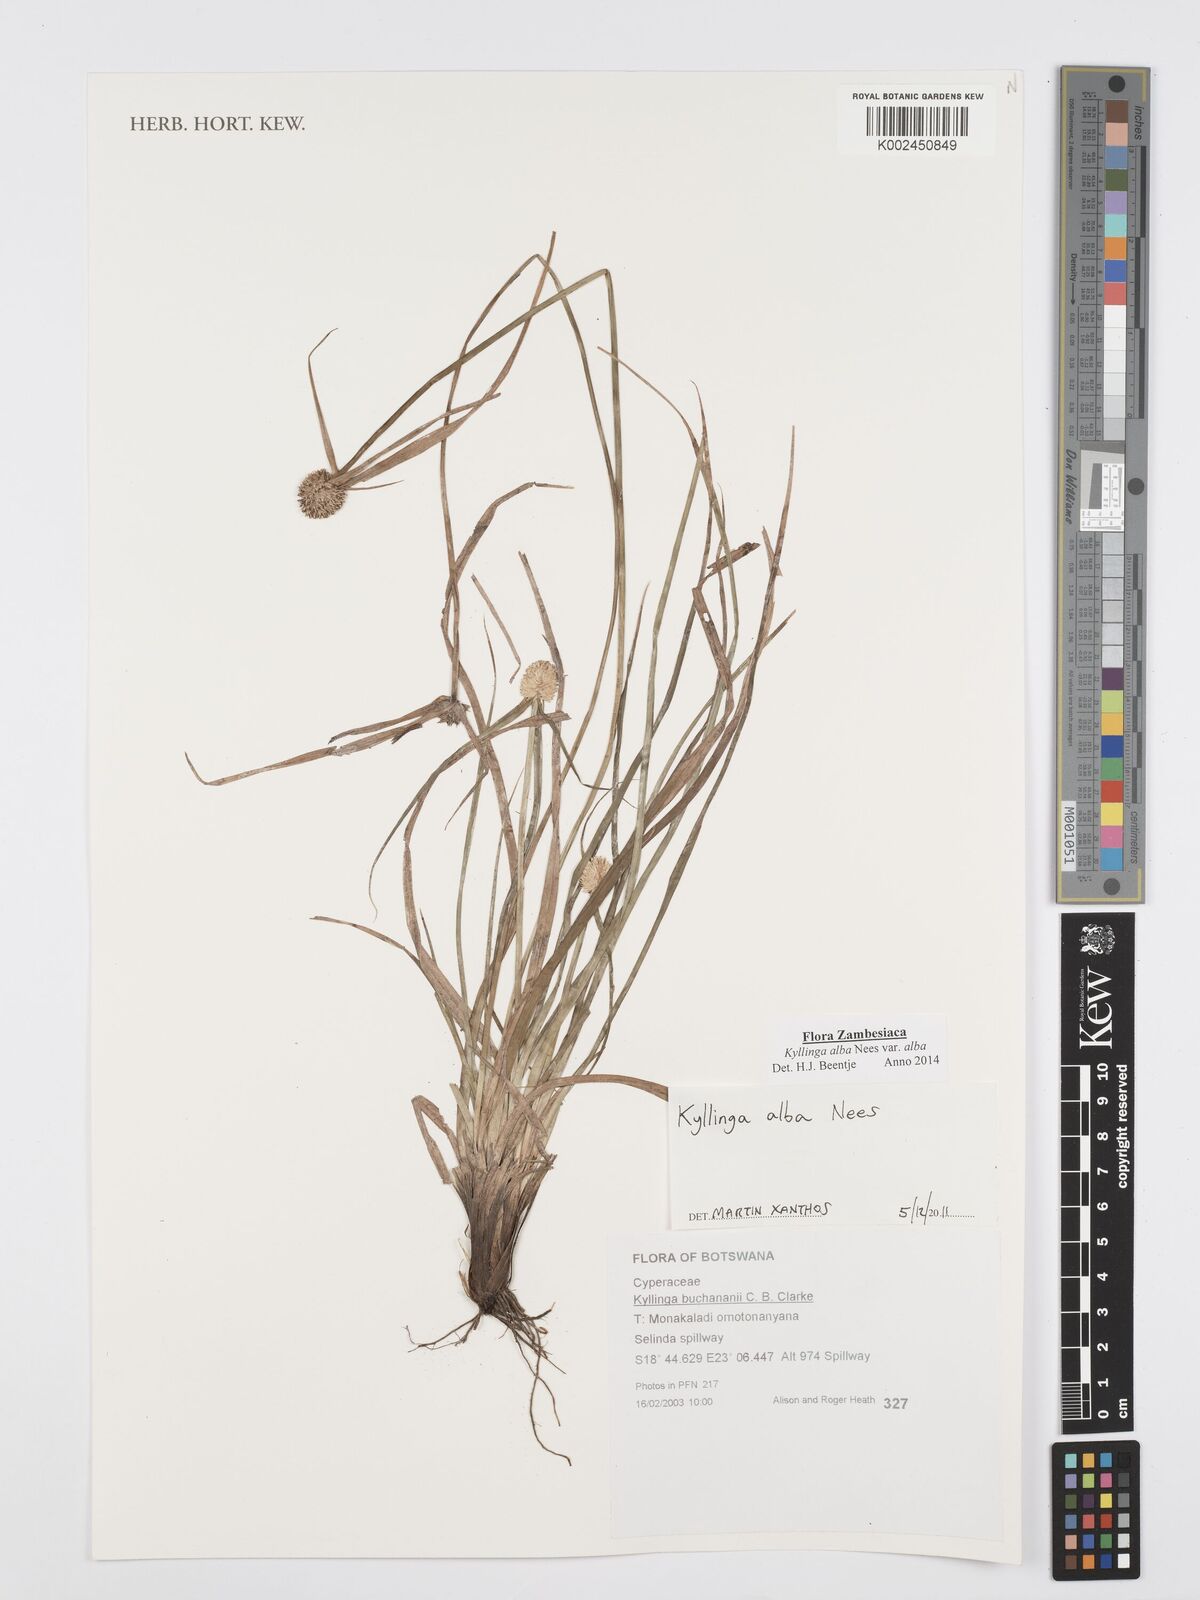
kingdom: Plantae
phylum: Tracheophyta
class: Liliopsida
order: Poales
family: Cyperaceae
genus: Cyperus
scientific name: Cyperus
